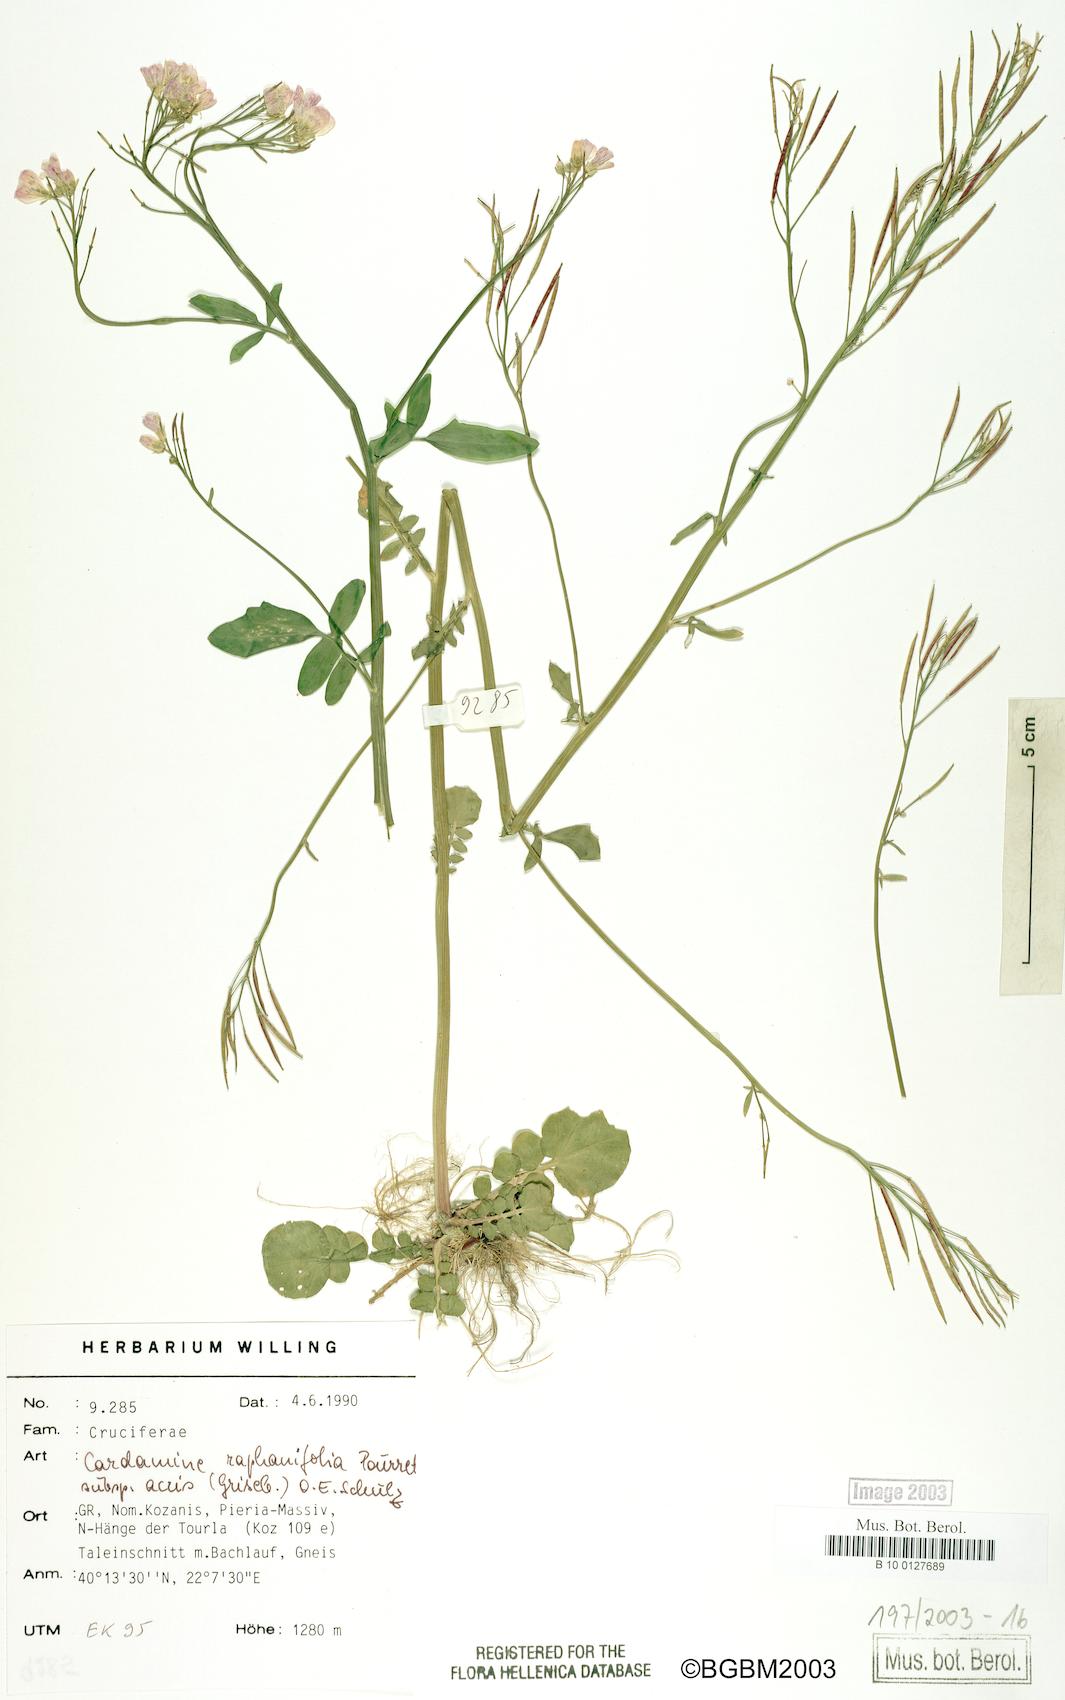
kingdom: Plantae
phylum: Tracheophyta
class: Magnoliopsida
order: Brassicales
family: Brassicaceae
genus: Cardamine
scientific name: Cardamine raphanifolia
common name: Greater cuckooflower
